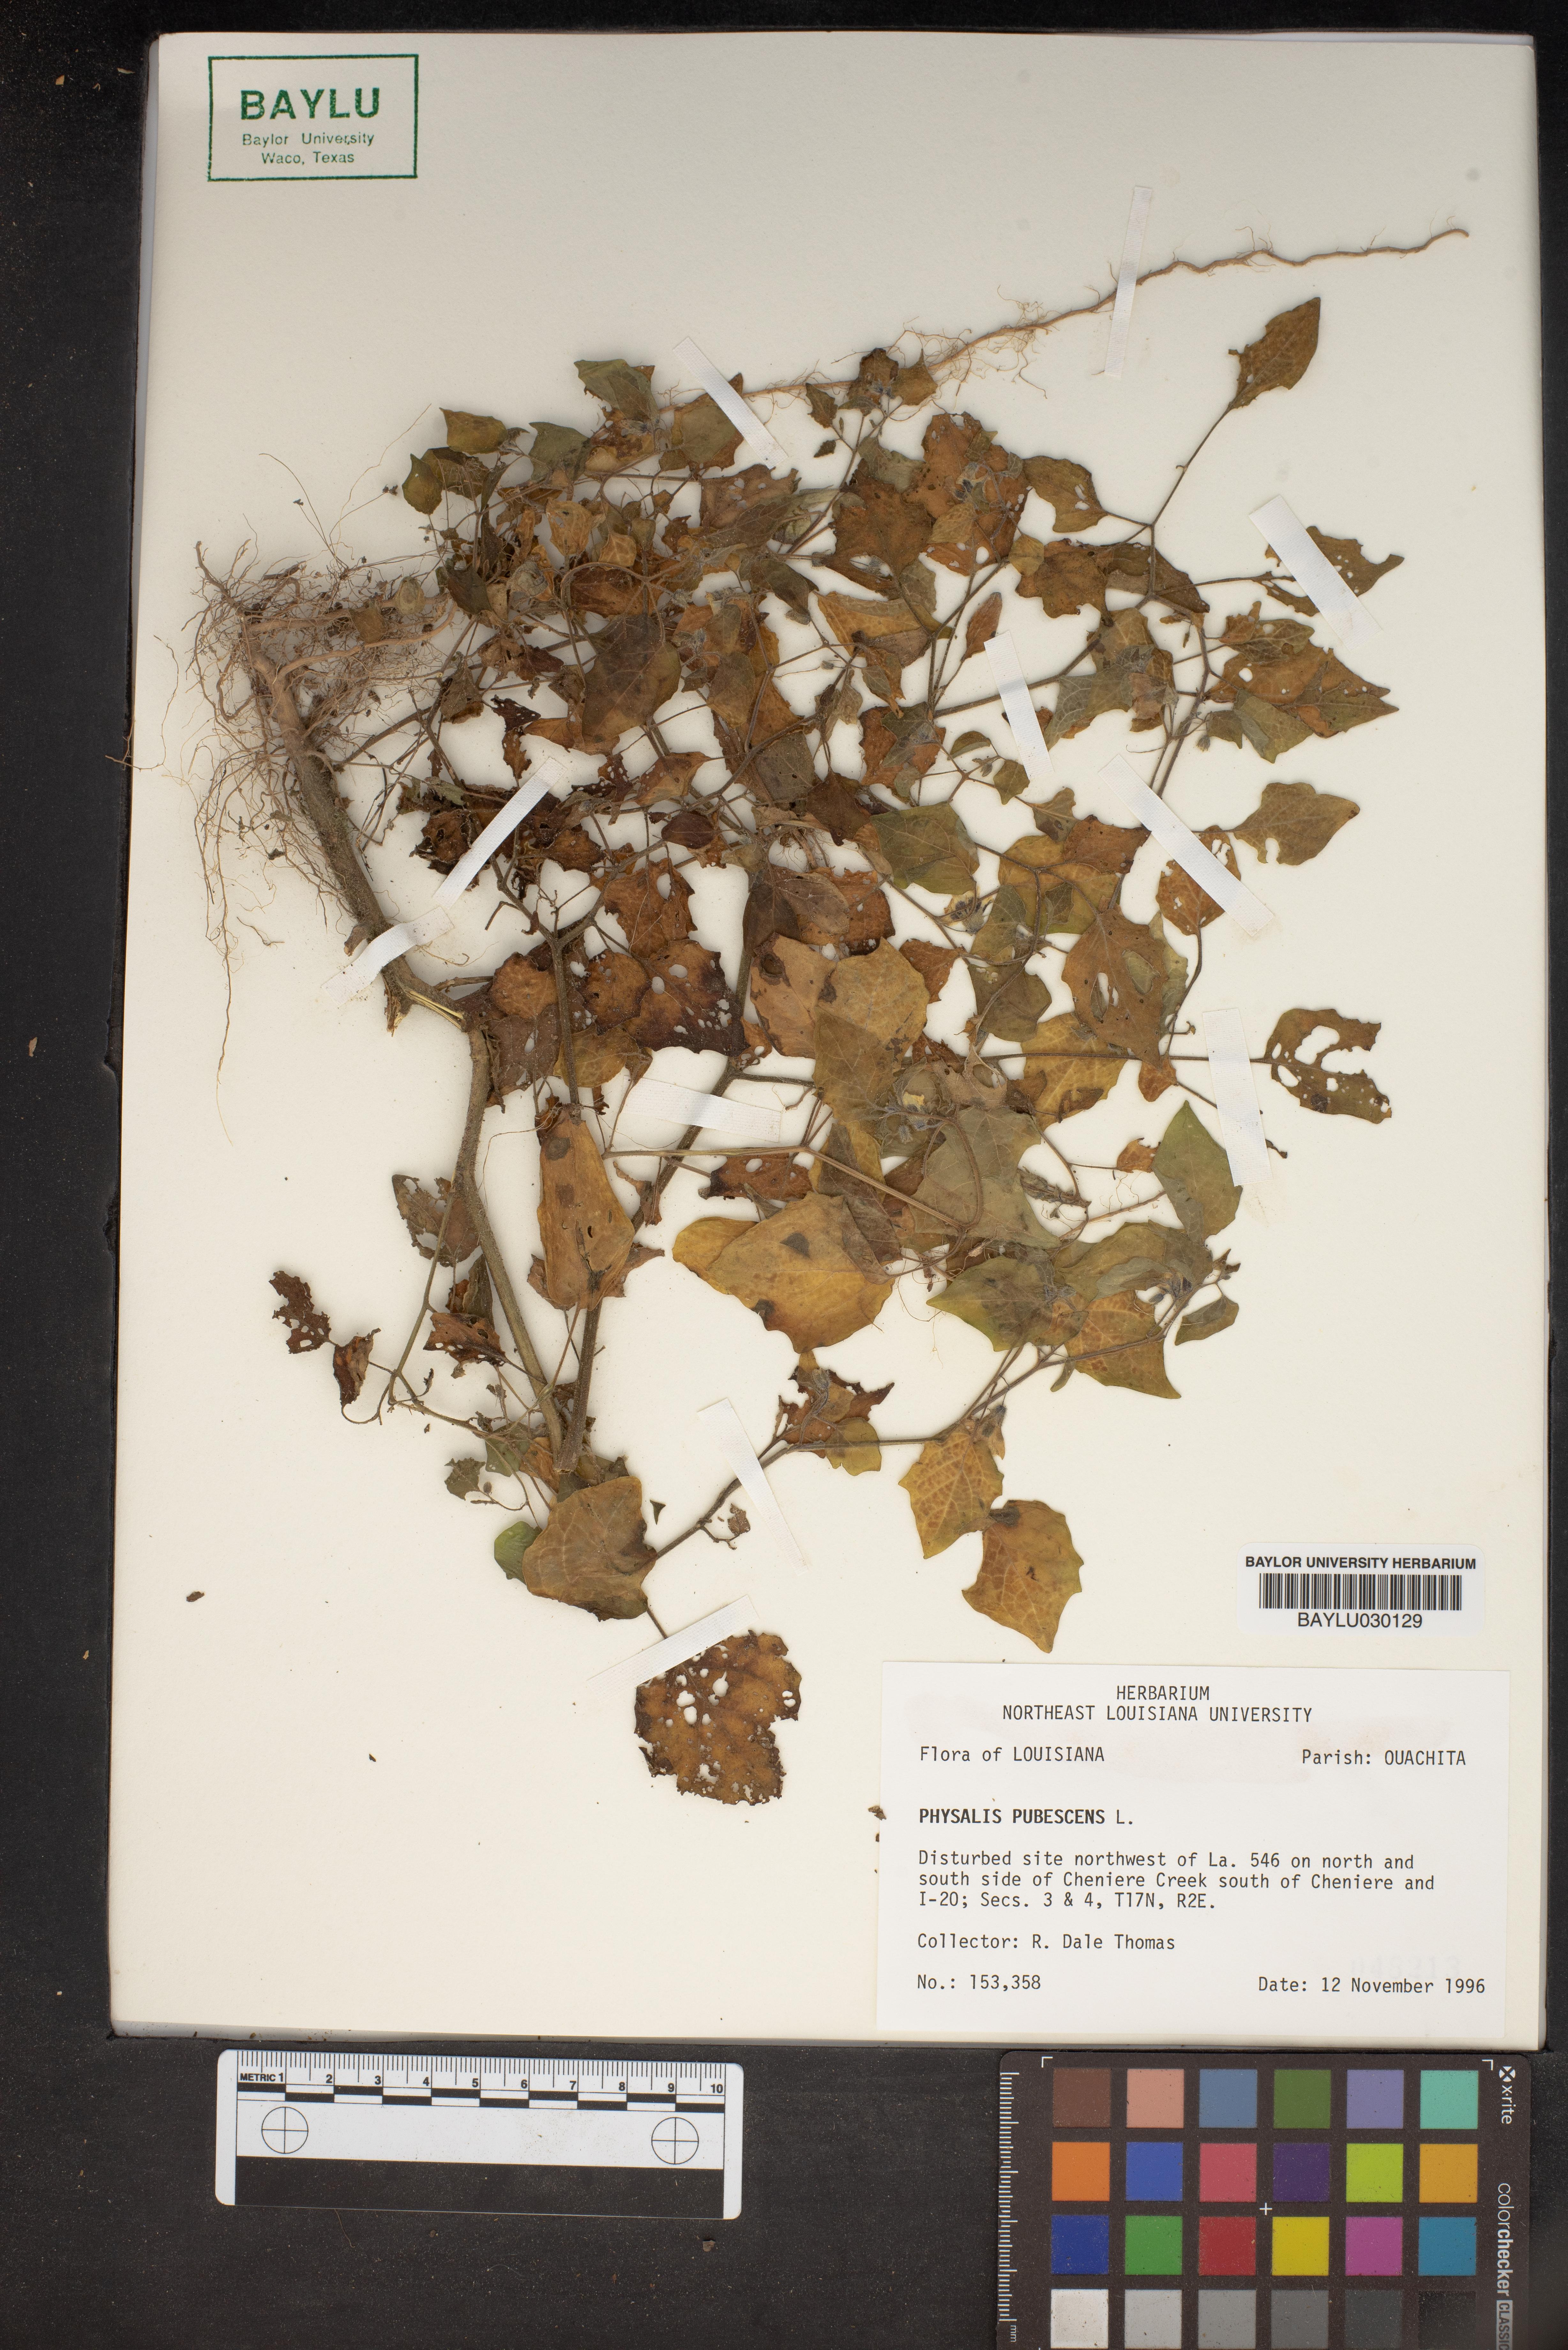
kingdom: Plantae
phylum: Tracheophyta
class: Magnoliopsida
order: Solanales
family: Solanaceae
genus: Physalis
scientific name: Physalis pubescens
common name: Downy ground-cherry
